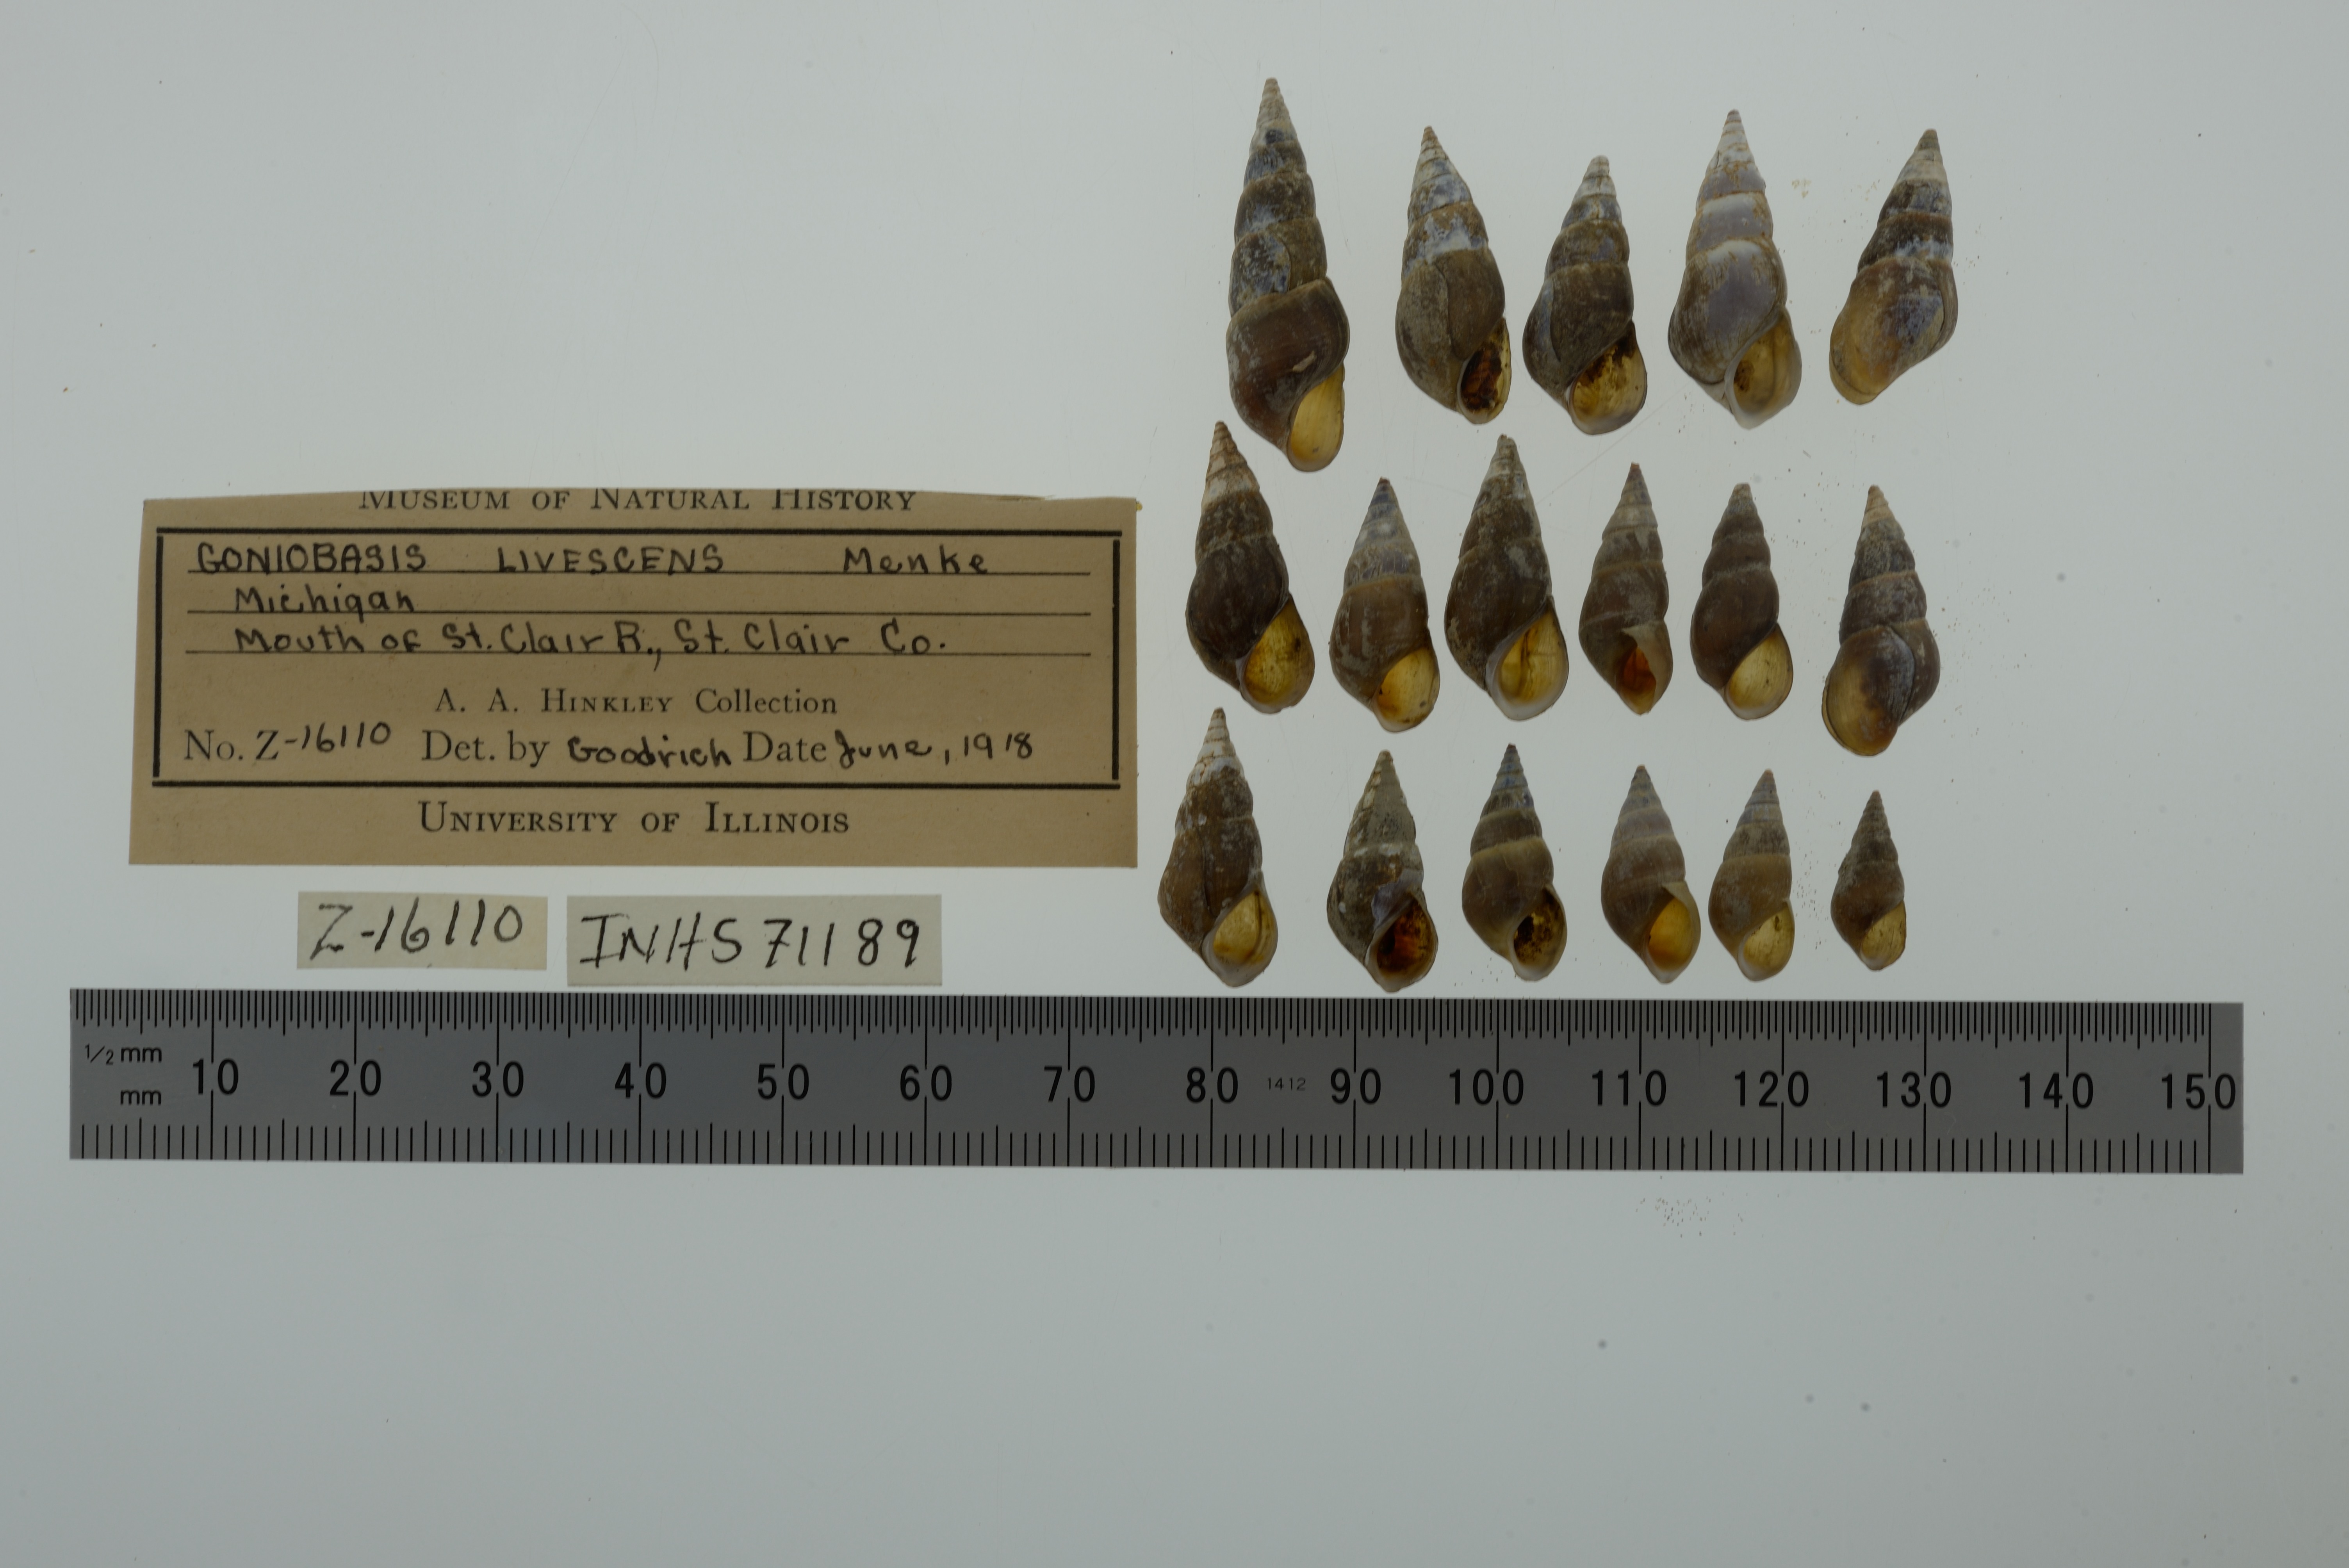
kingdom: Animalia
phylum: Mollusca
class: Gastropoda
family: Pleuroceridae
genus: Elimia
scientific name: Elimia livescens
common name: Liver elimia
